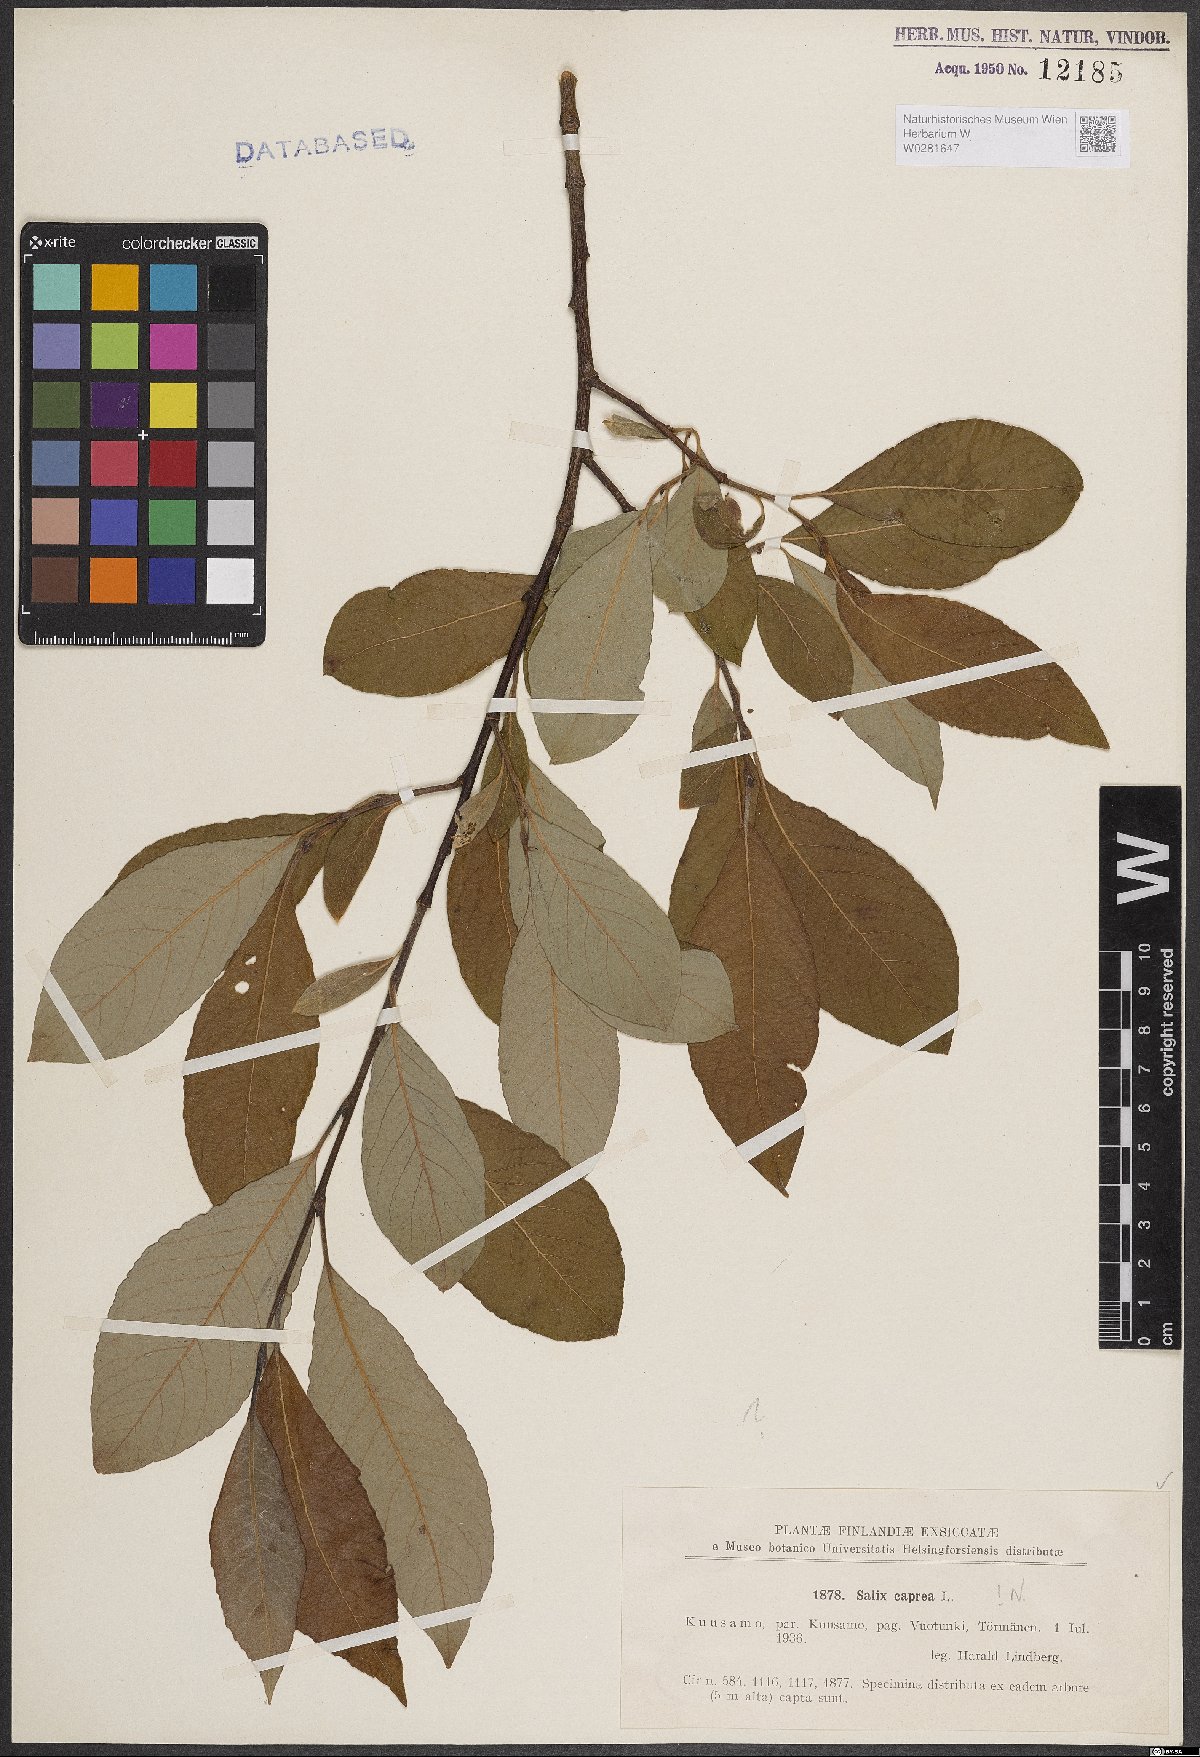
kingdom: Plantae
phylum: Tracheophyta
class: Magnoliopsida
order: Malpighiales
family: Salicaceae
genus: Salix
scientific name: Salix caprea
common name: Goat willow
